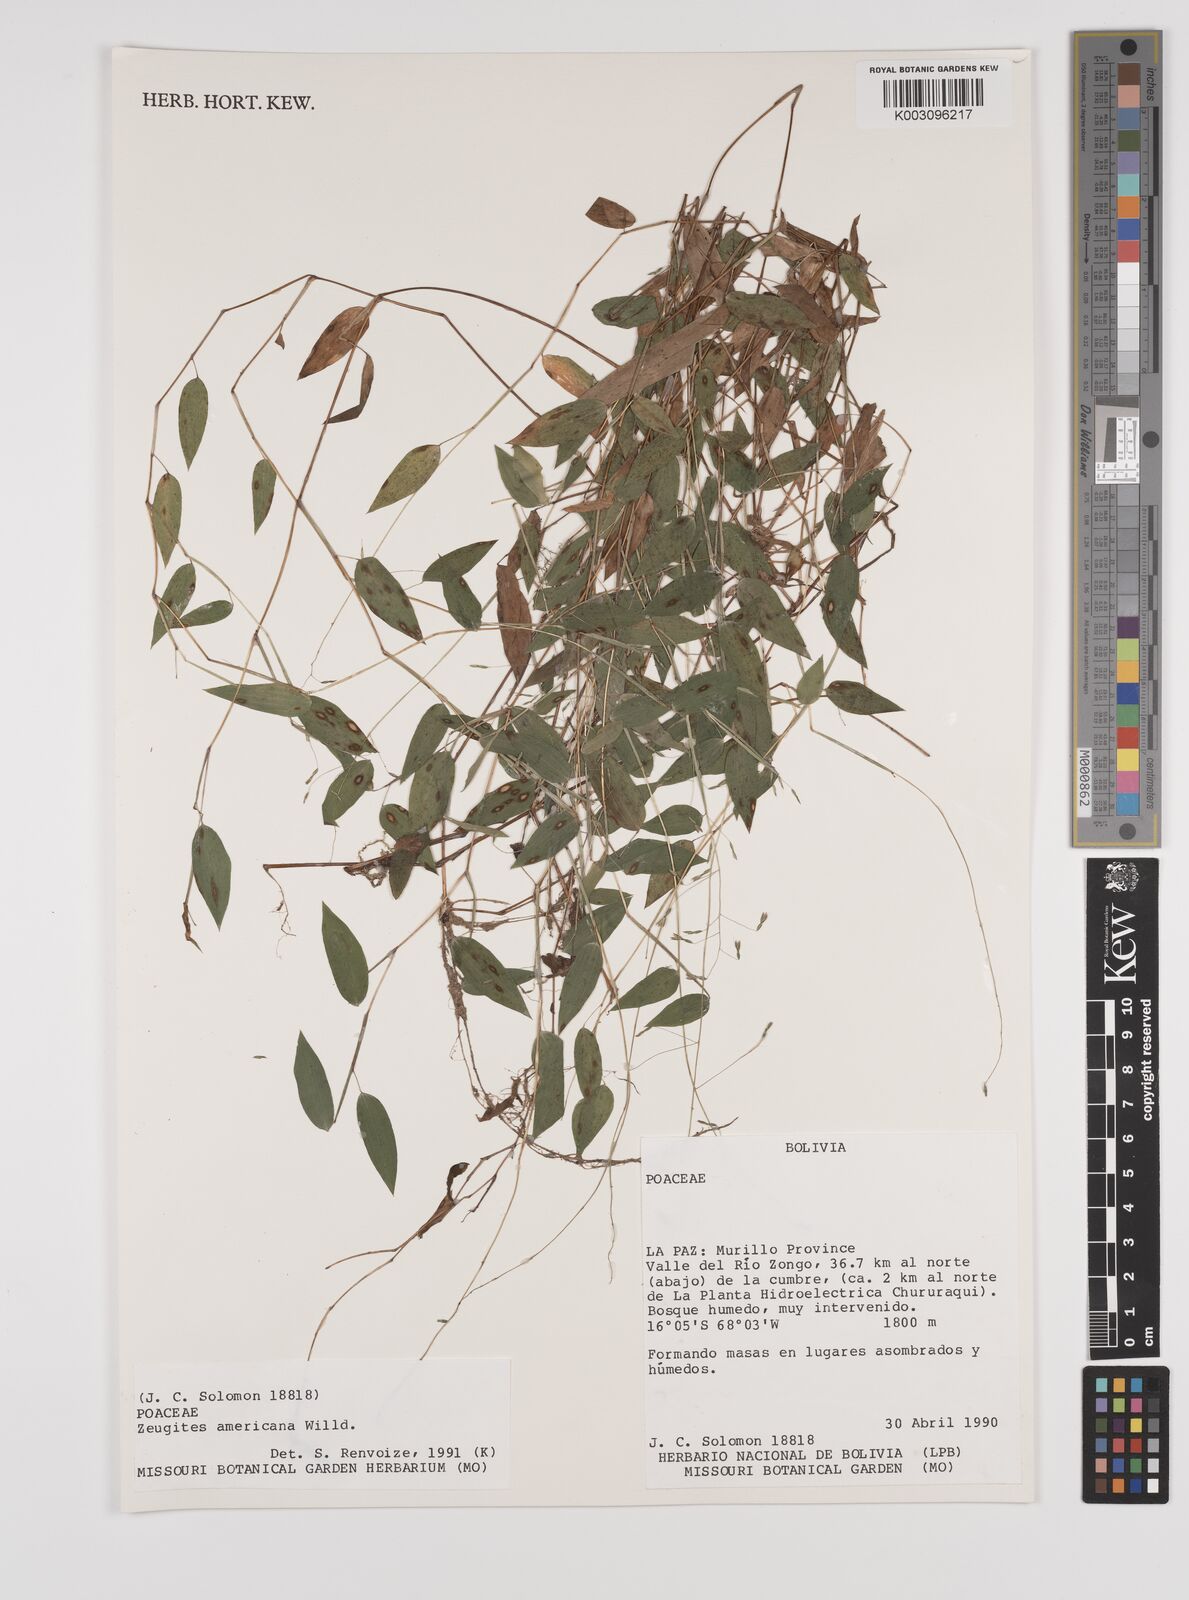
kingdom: Plantae
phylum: Tracheophyta
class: Liliopsida
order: Poales
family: Poaceae
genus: Zeugites
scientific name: Zeugites americanus
